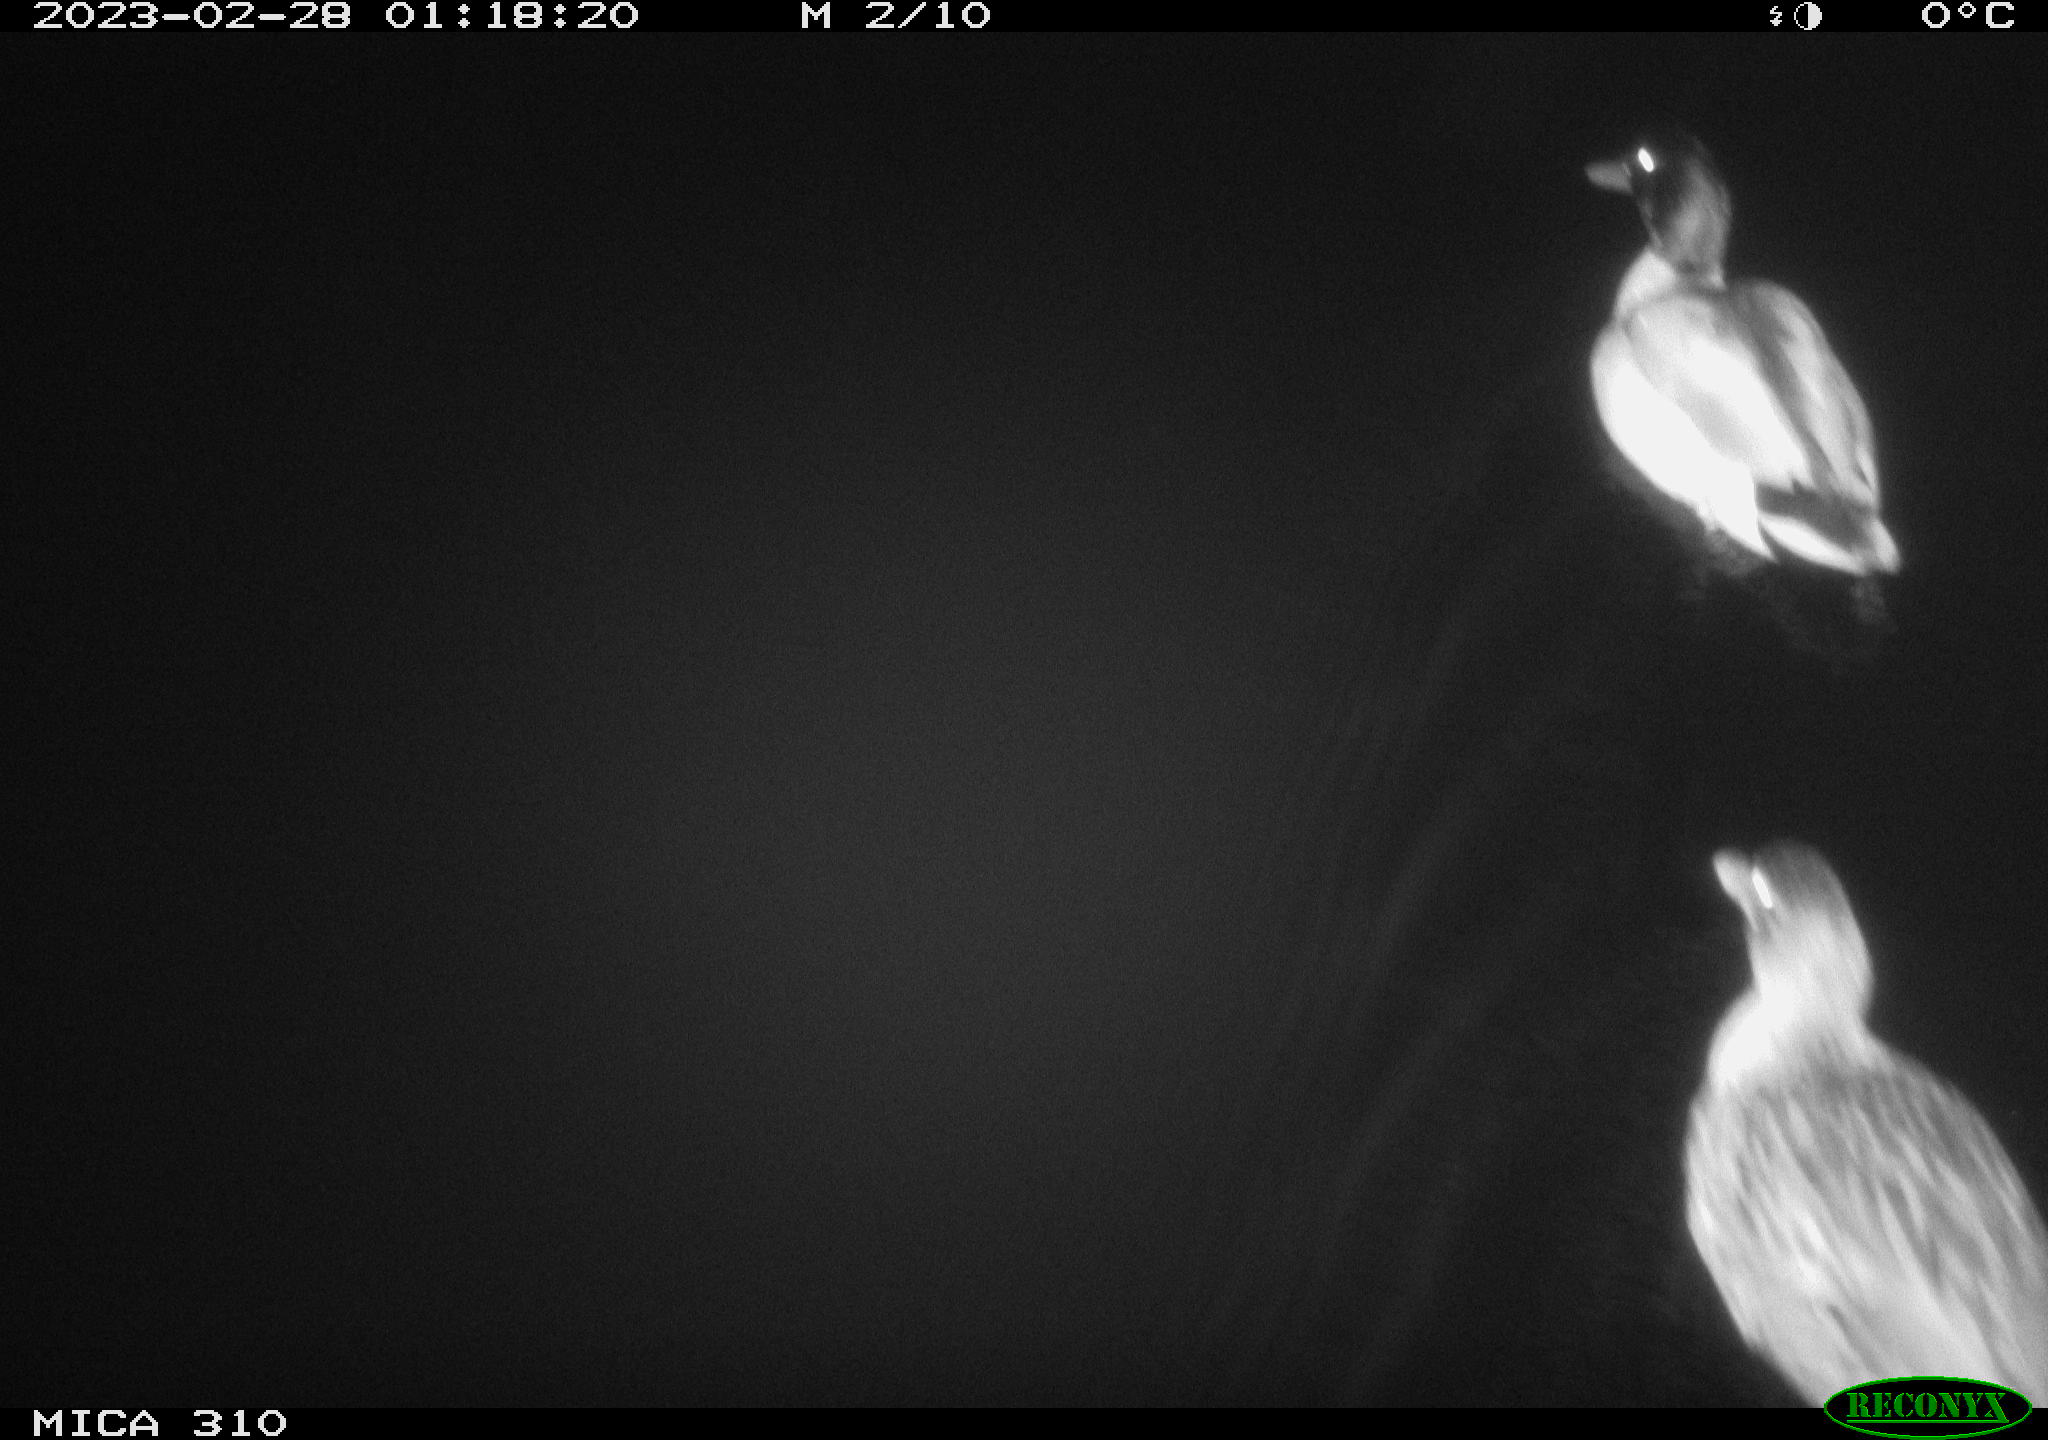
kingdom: Animalia
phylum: Chordata
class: Aves
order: Anseriformes
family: Anatidae
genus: Anas
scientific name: Anas
